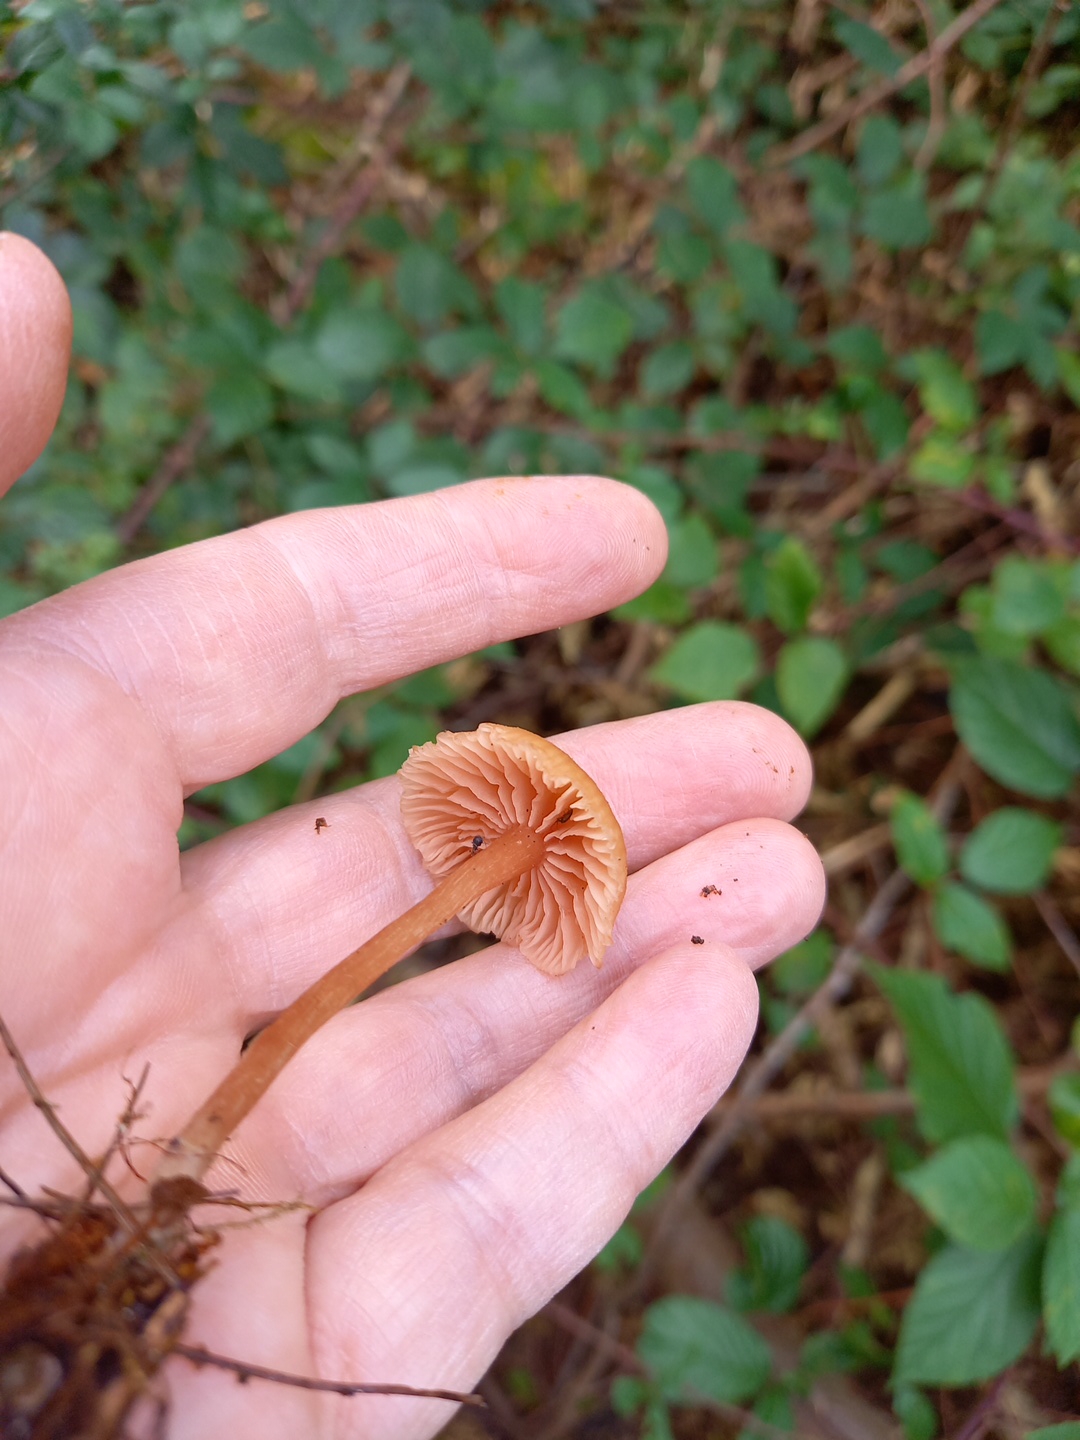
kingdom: Fungi
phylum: Basidiomycota
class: Agaricomycetes
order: Agaricales
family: Hydnangiaceae
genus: Laccaria
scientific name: Laccaria laccata
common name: rød ametysthat
